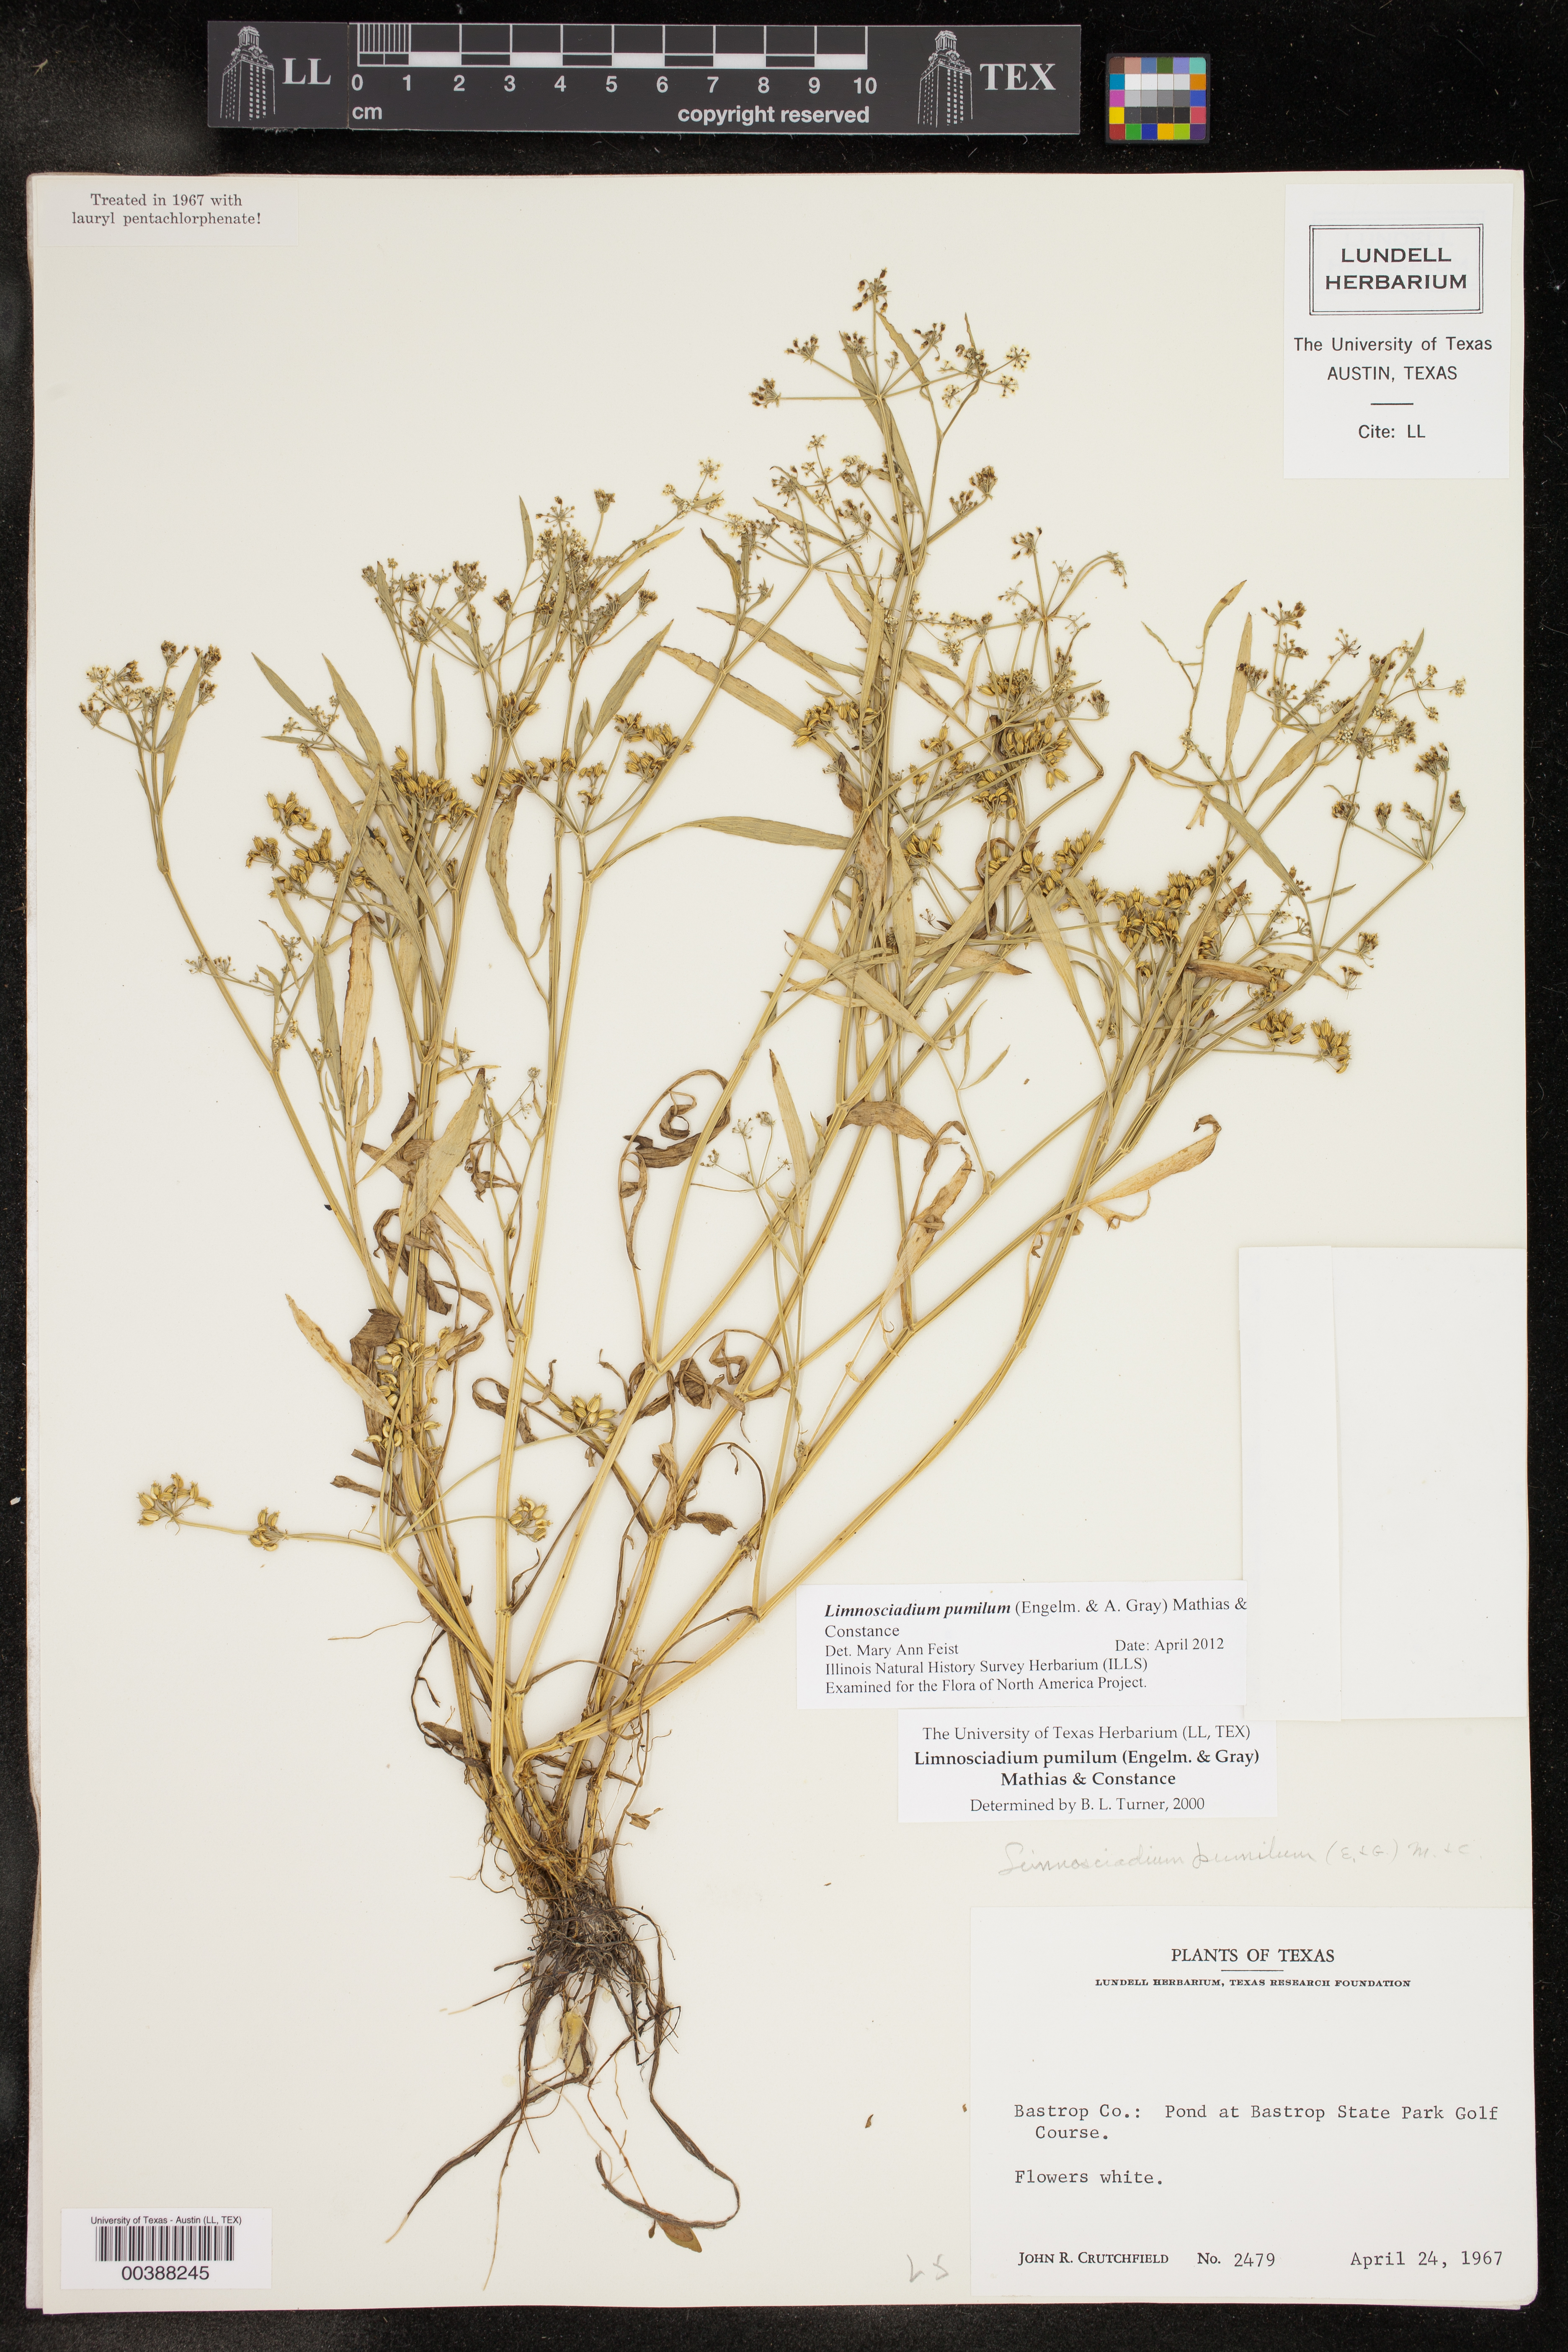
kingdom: Plantae
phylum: Tracheophyta
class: Magnoliopsida
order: Apiales
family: Apiaceae
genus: Limnosciadium
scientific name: Limnosciadium pinnatum
